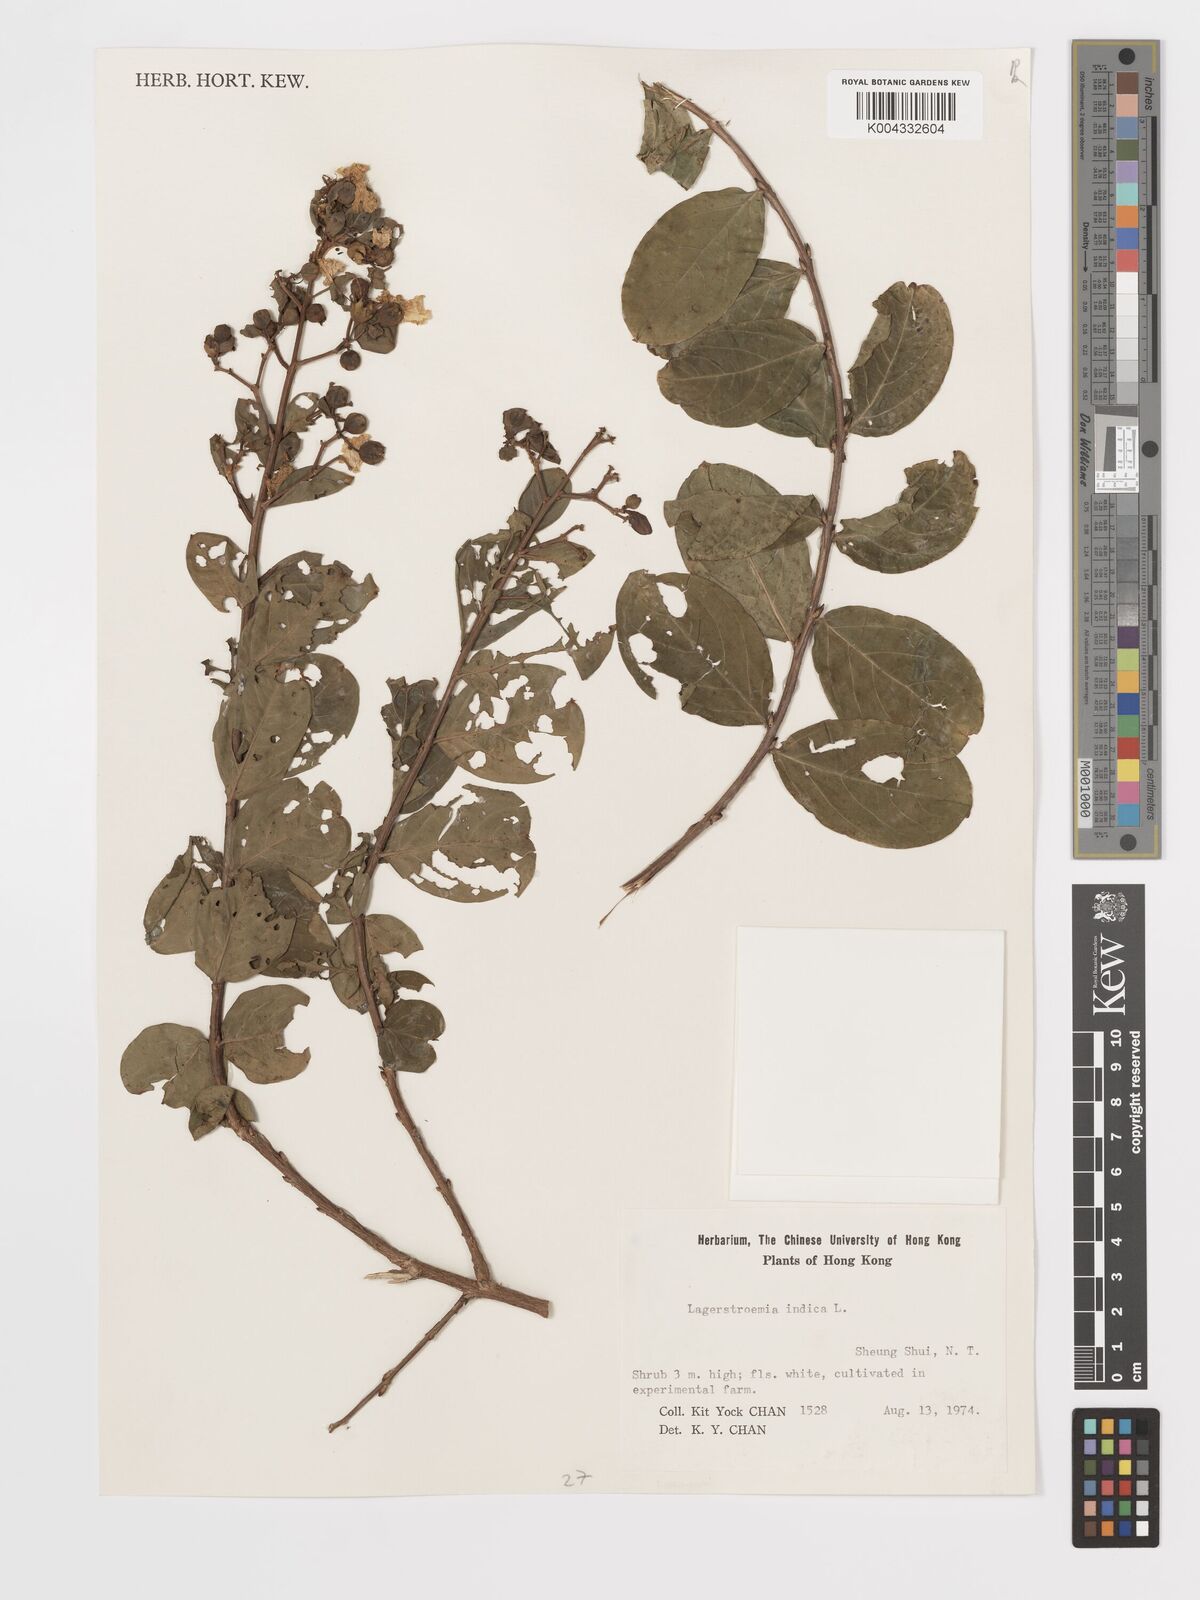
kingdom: Plantae
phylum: Tracheophyta
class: Magnoliopsida
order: Myrtales
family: Lythraceae
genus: Lagerstroemia
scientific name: Lagerstroemia indica
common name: Crape-myrtle
